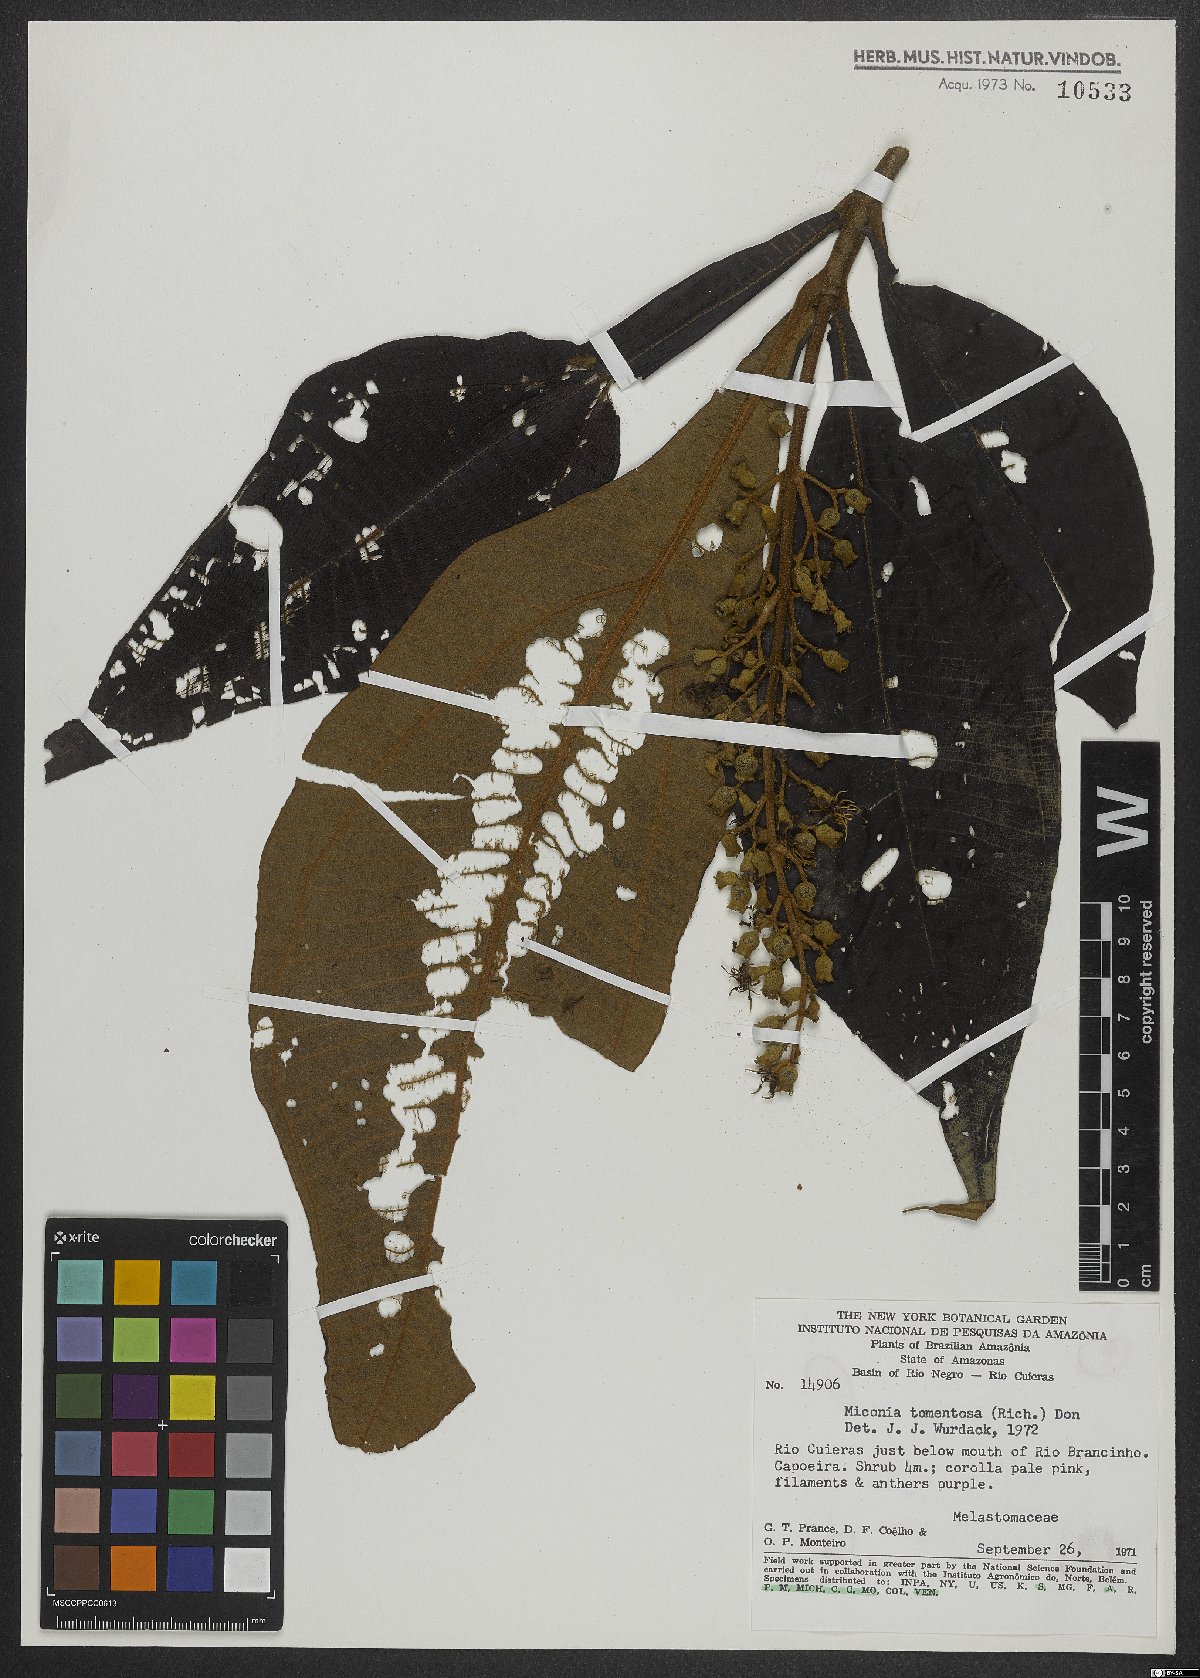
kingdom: Plantae
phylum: Tracheophyta
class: Magnoliopsida
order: Myrtales
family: Melastomataceae
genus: Miconia
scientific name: Miconia tomentosa
